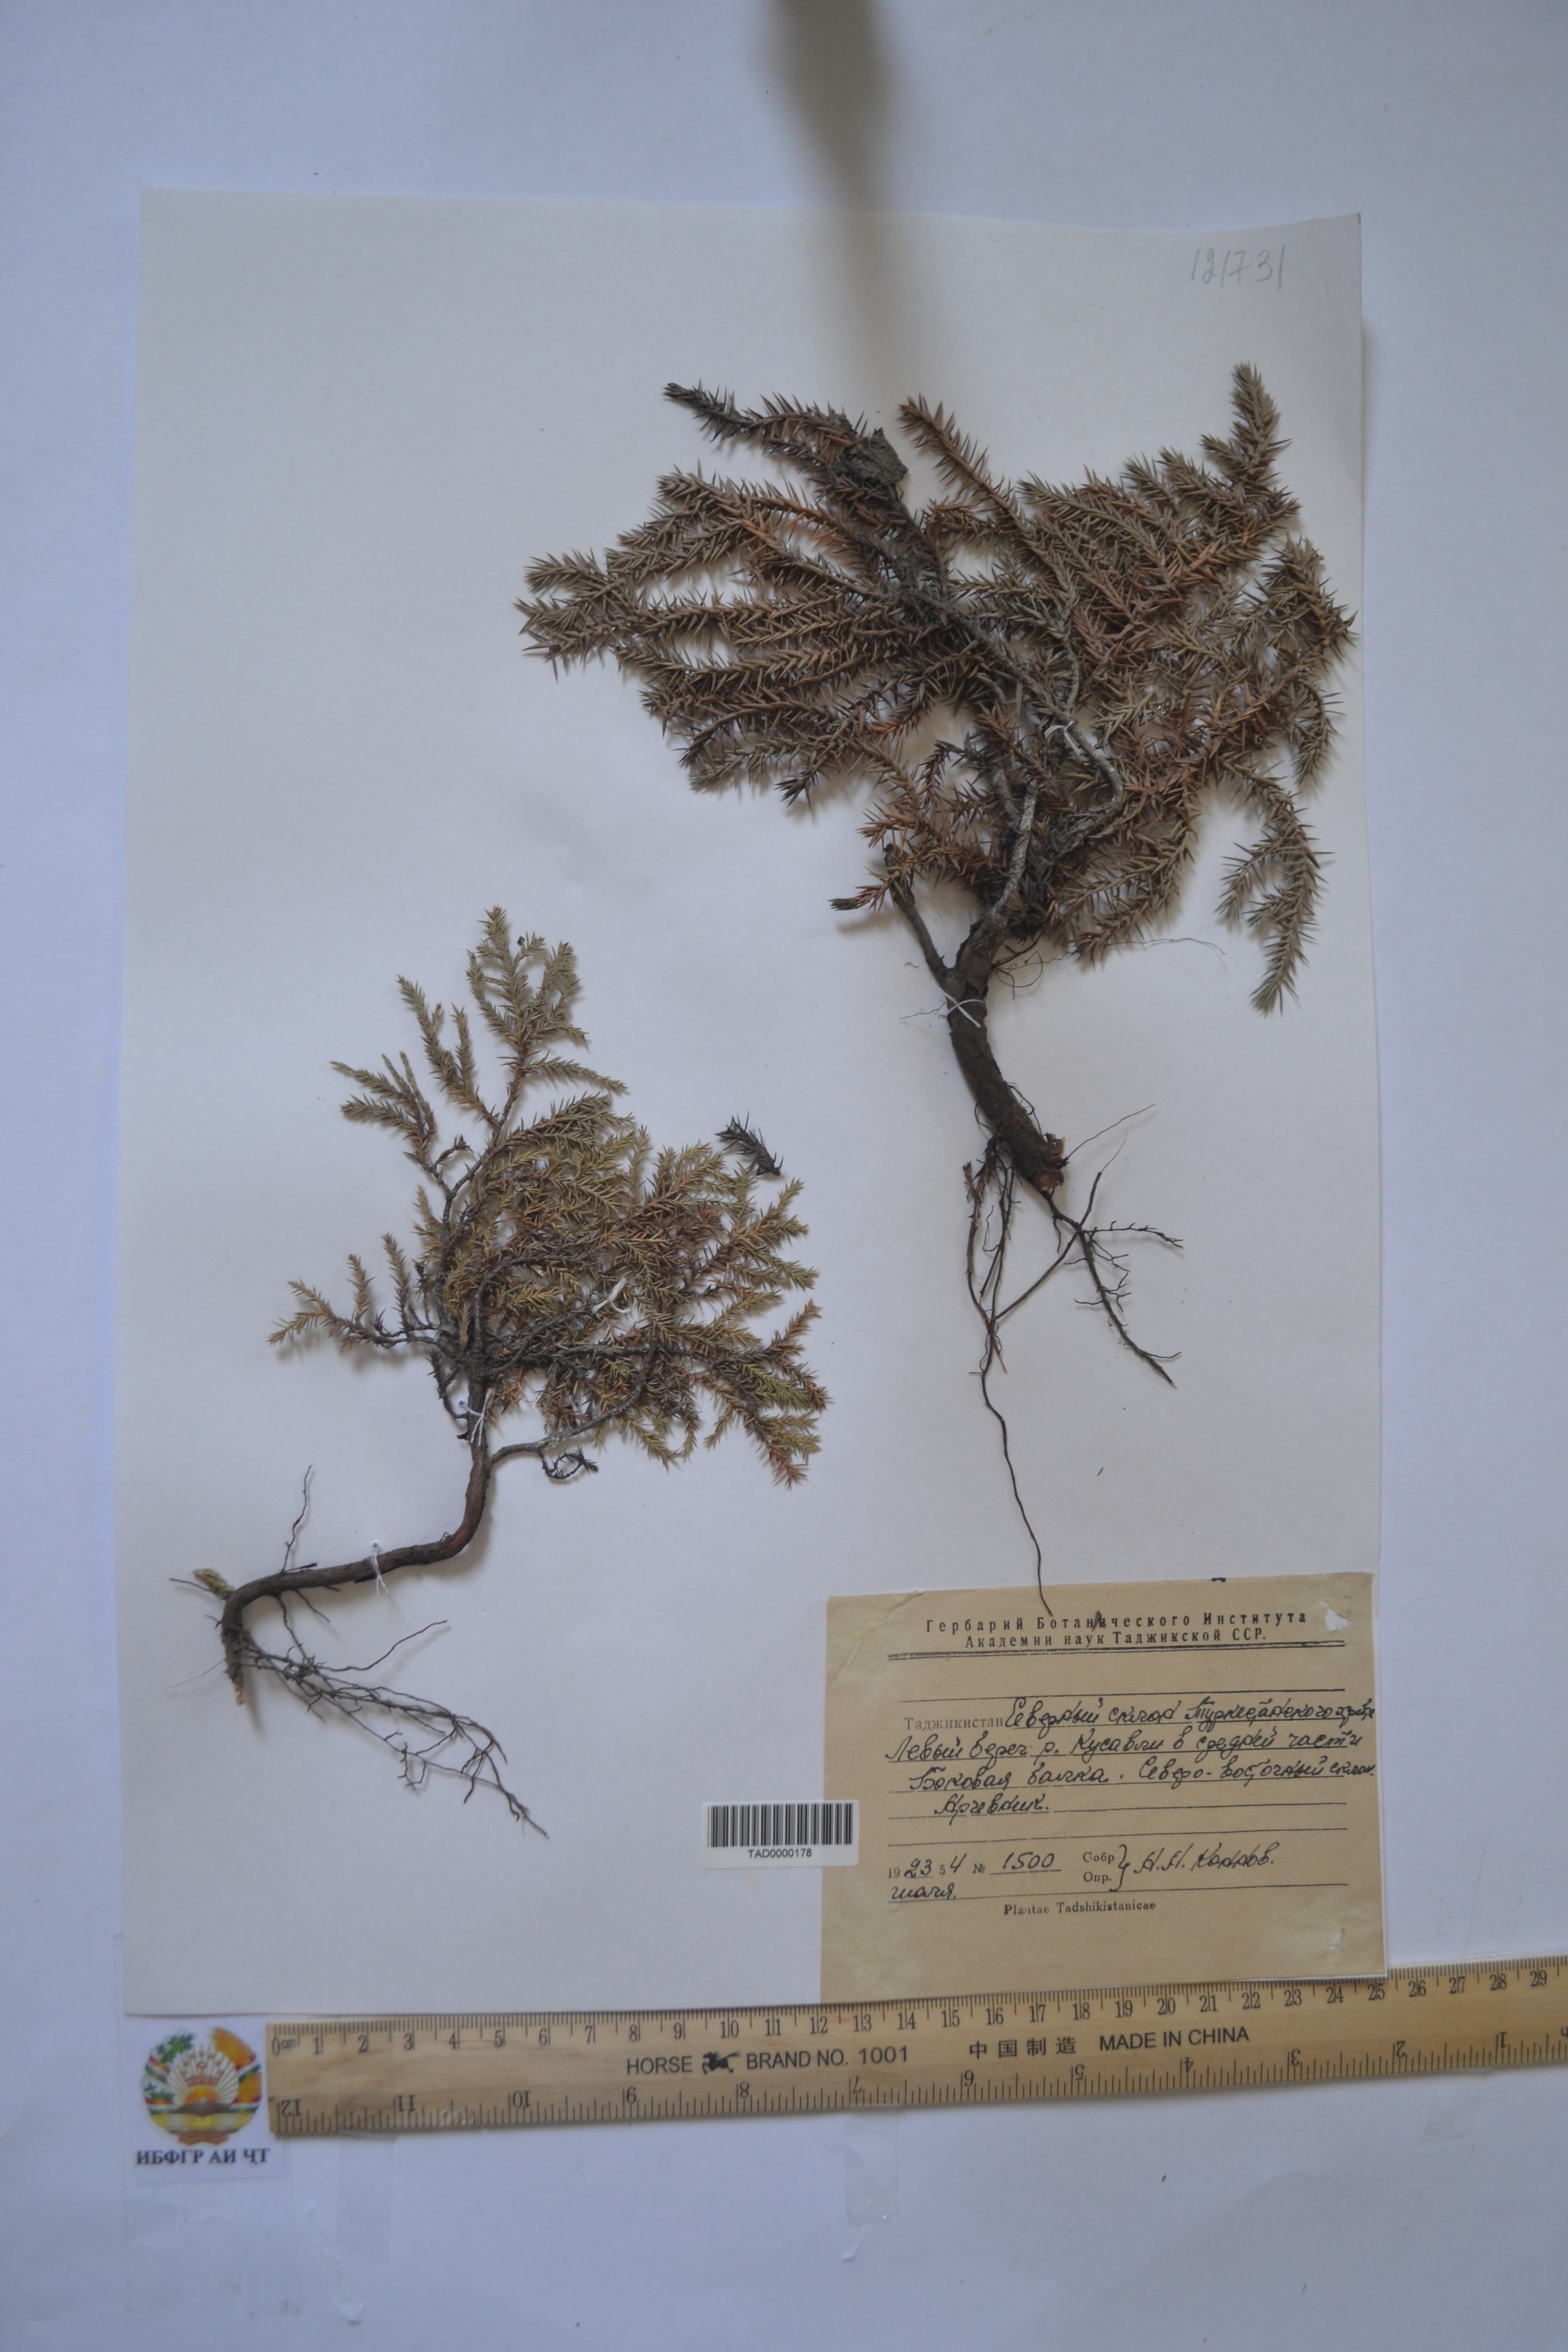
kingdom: Plantae
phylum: Tracheophyta
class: Pinopsida
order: Pinales
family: Cupressaceae
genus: Juniperus
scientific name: Juniperus pseudosabina
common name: Turkestan juniper
